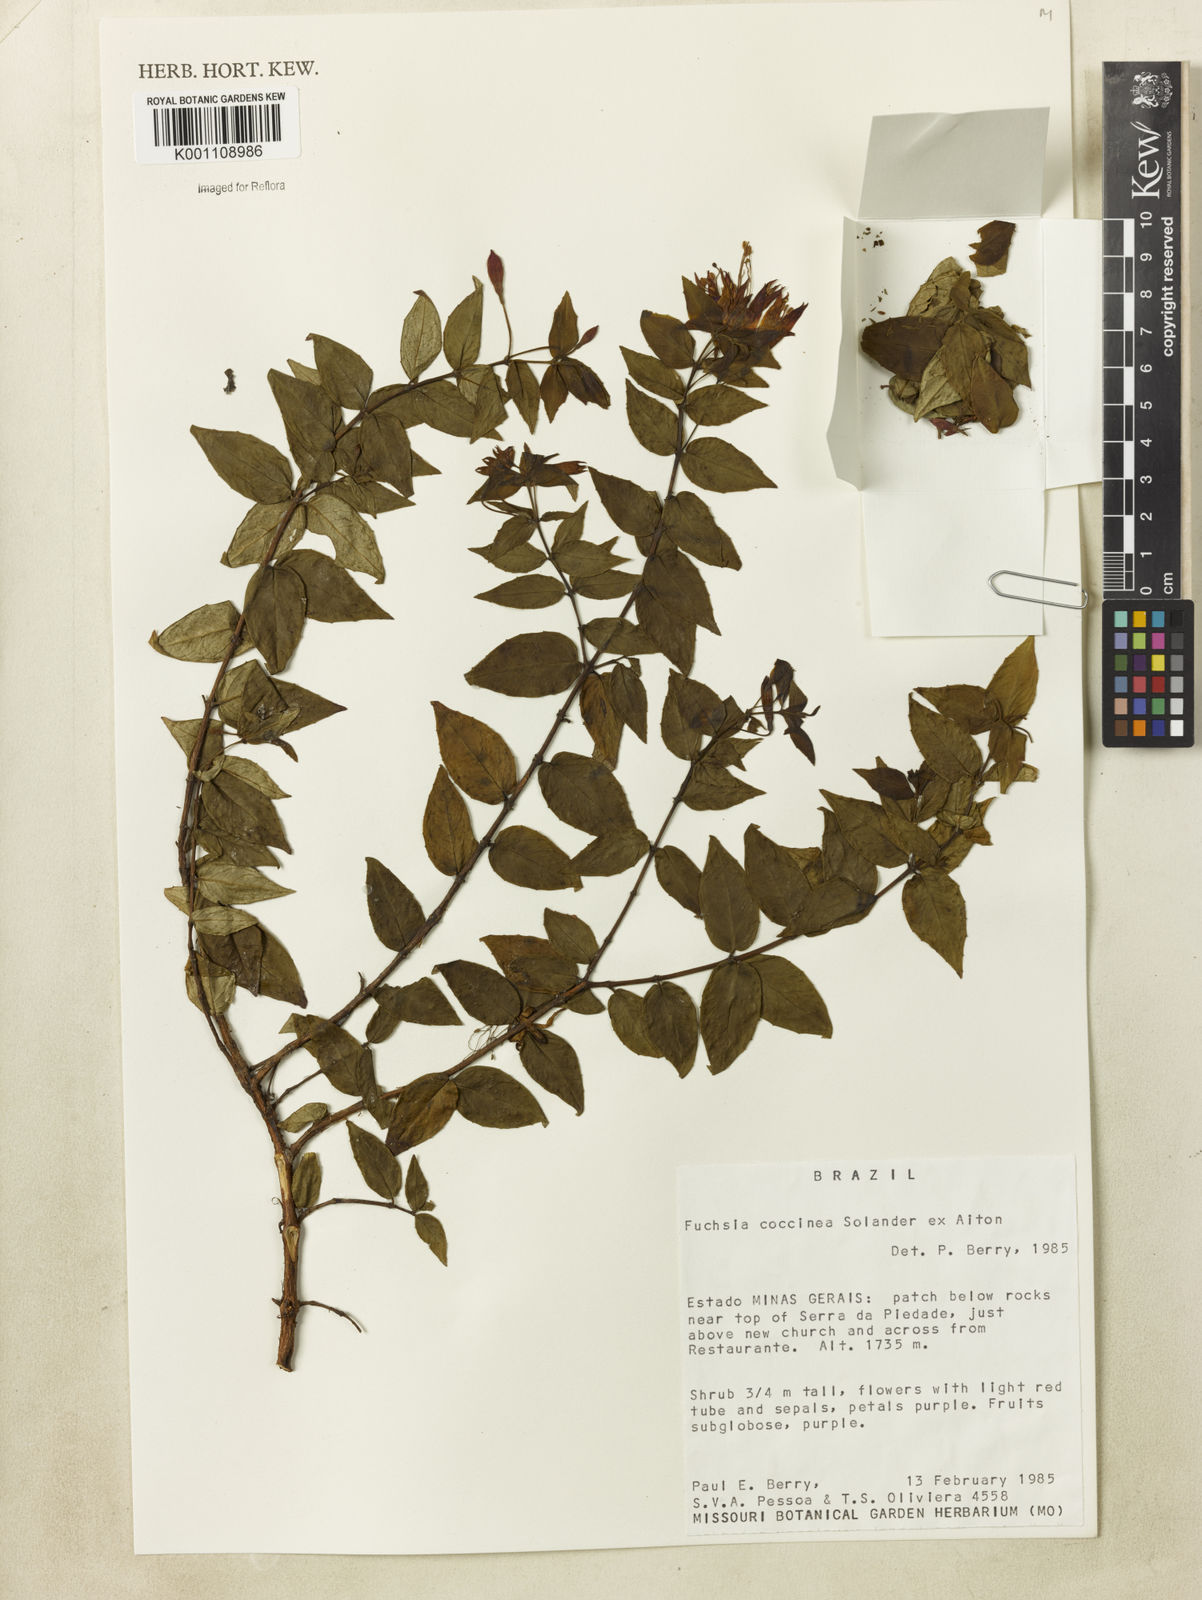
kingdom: Plantae
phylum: Tracheophyta
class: Magnoliopsida
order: Myrtales
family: Onagraceae
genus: Fuchsia
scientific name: Fuchsia
